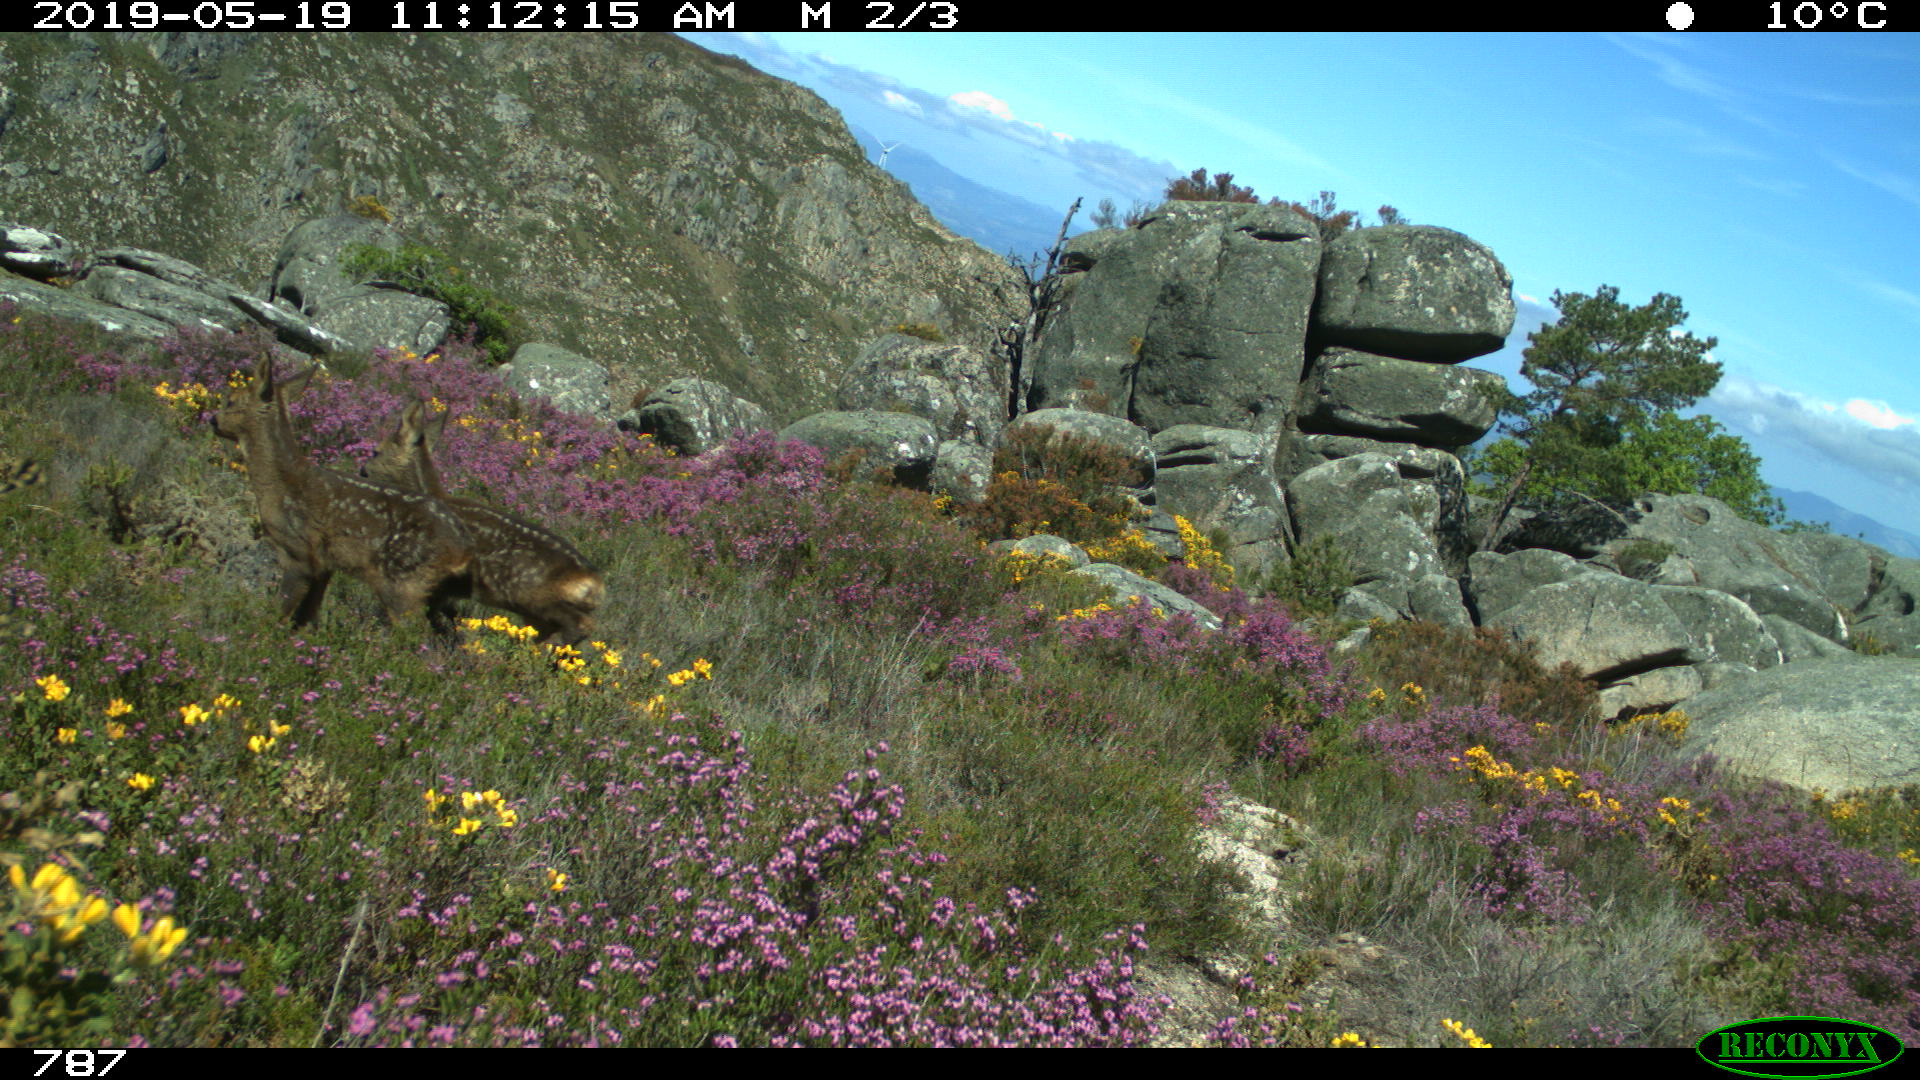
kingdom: Animalia
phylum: Chordata
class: Mammalia
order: Artiodactyla
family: Cervidae
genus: Capreolus
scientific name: Capreolus capreolus
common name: Western roe deer
